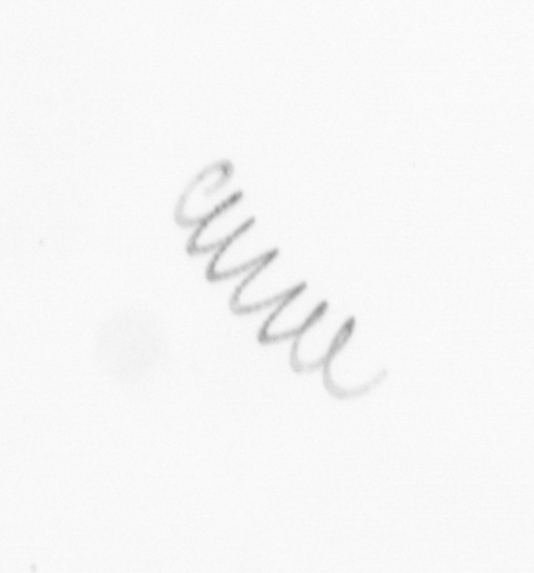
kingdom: Chromista
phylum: Ochrophyta
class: Bacillariophyceae
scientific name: Bacillariophyceae
